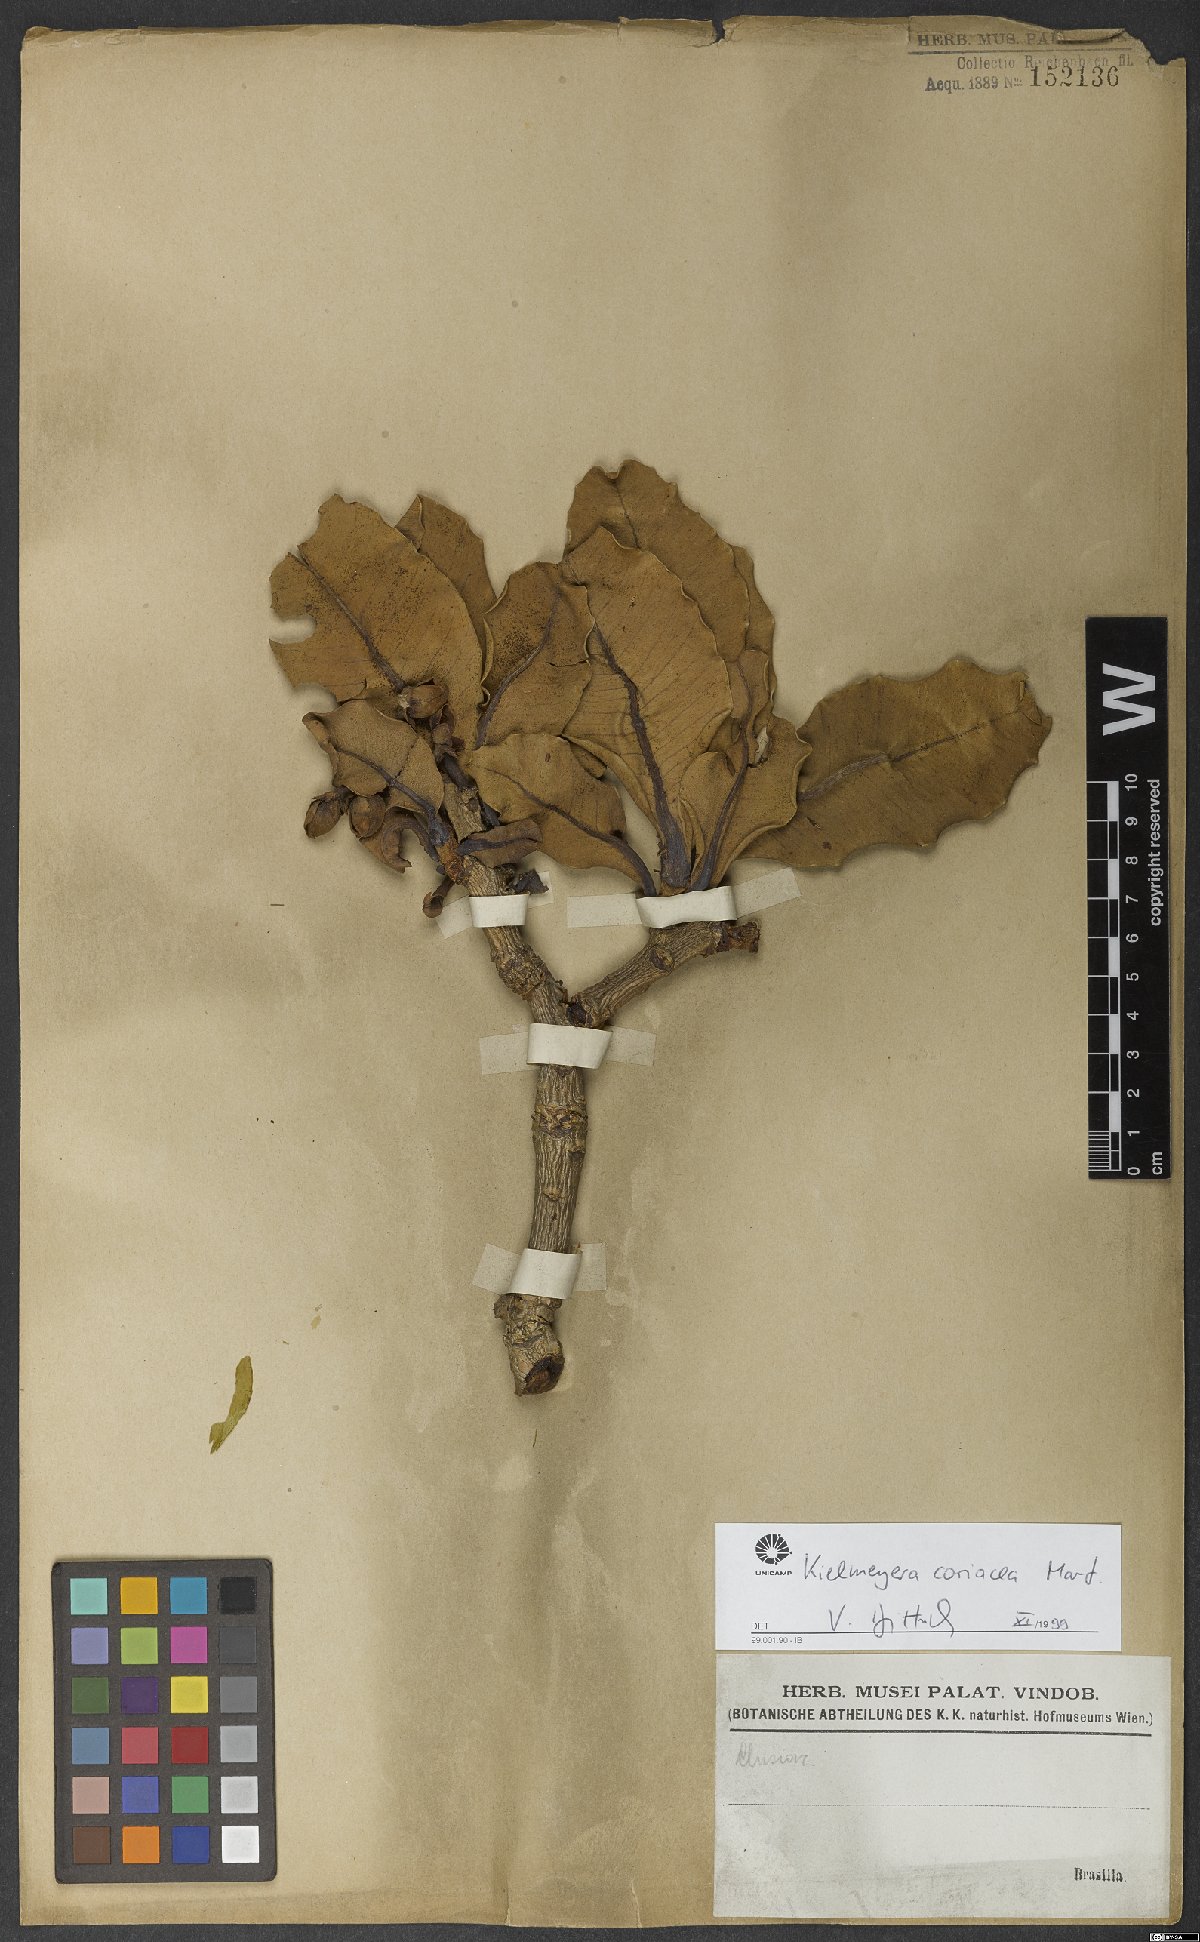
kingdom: Plantae
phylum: Tracheophyta
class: Magnoliopsida
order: Malpighiales
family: Calophyllaceae
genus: Kielmeyera
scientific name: Kielmeyera coriacea
